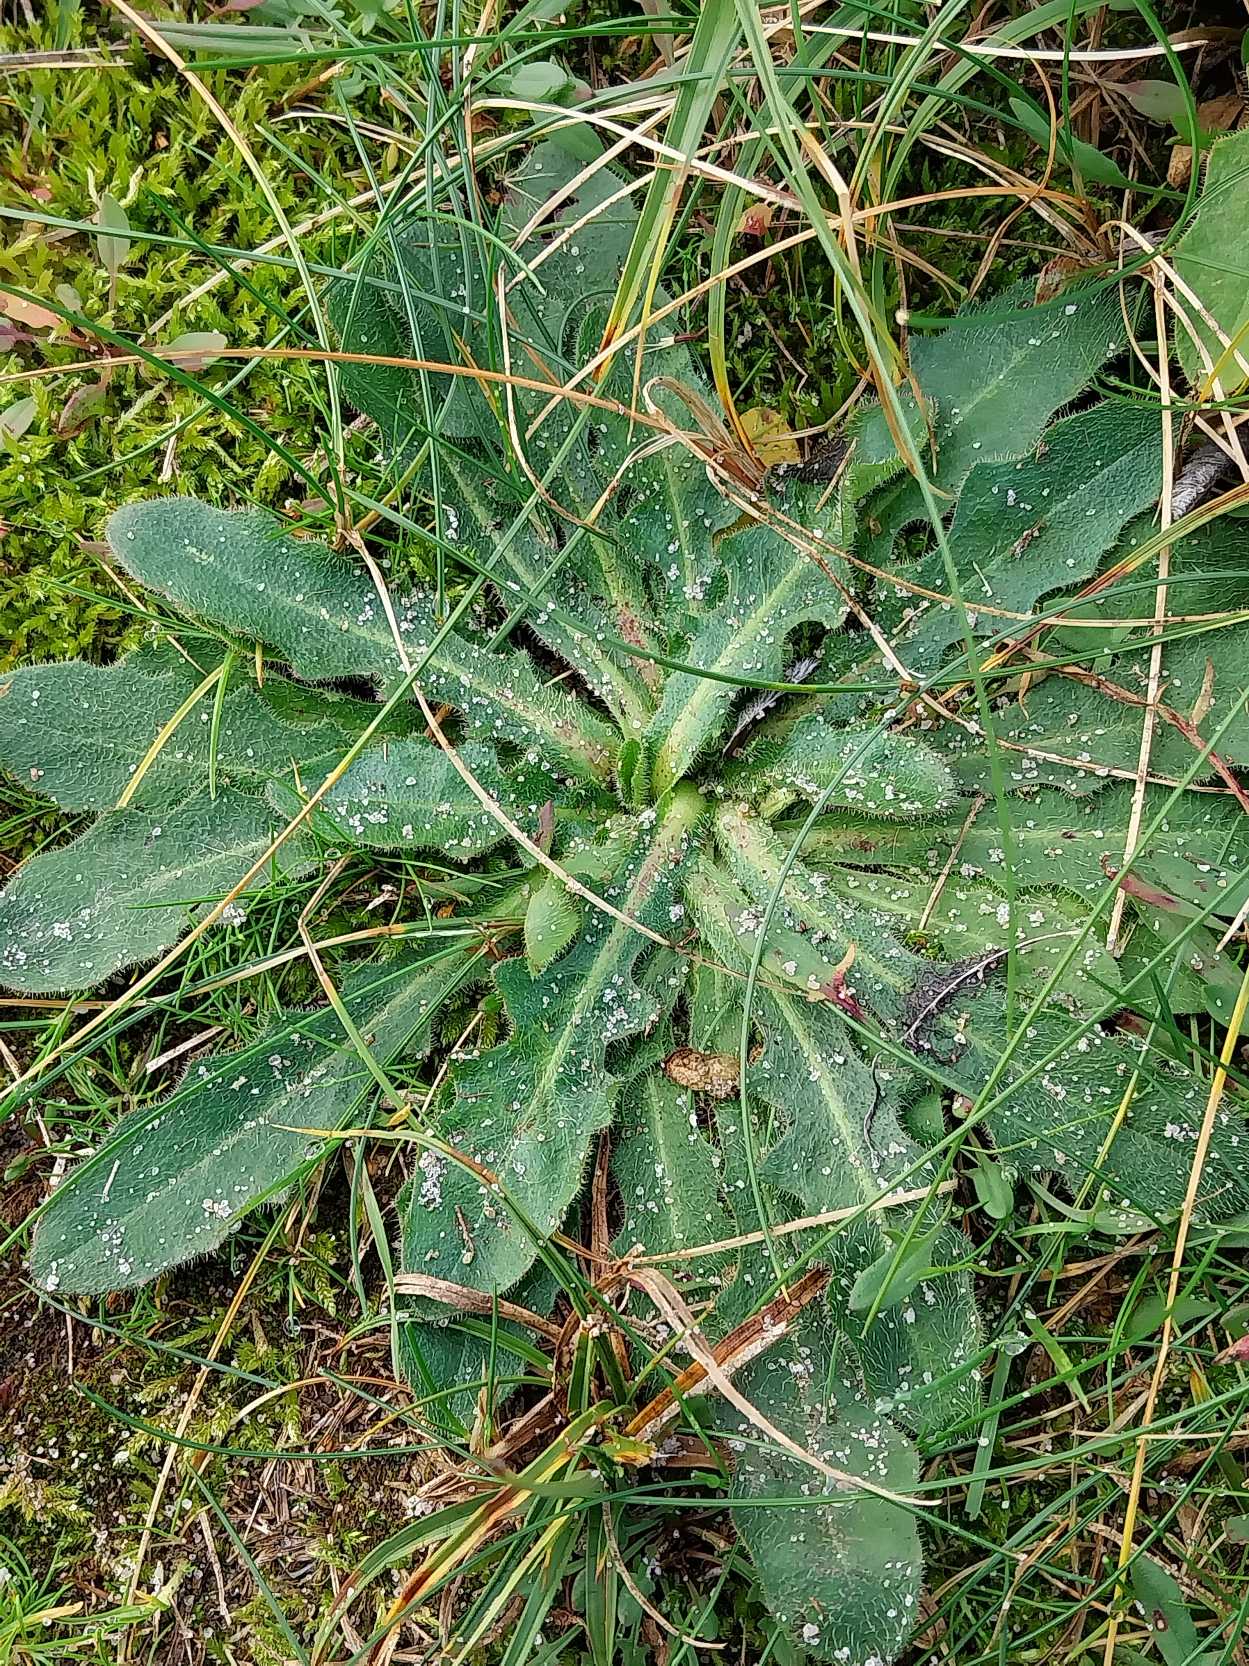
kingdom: Plantae
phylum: Tracheophyta
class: Magnoliopsida
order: Asterales
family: Asteraceae
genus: Hypochaeris
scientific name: Hypochaeris radicata
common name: Almindelig kongepen
